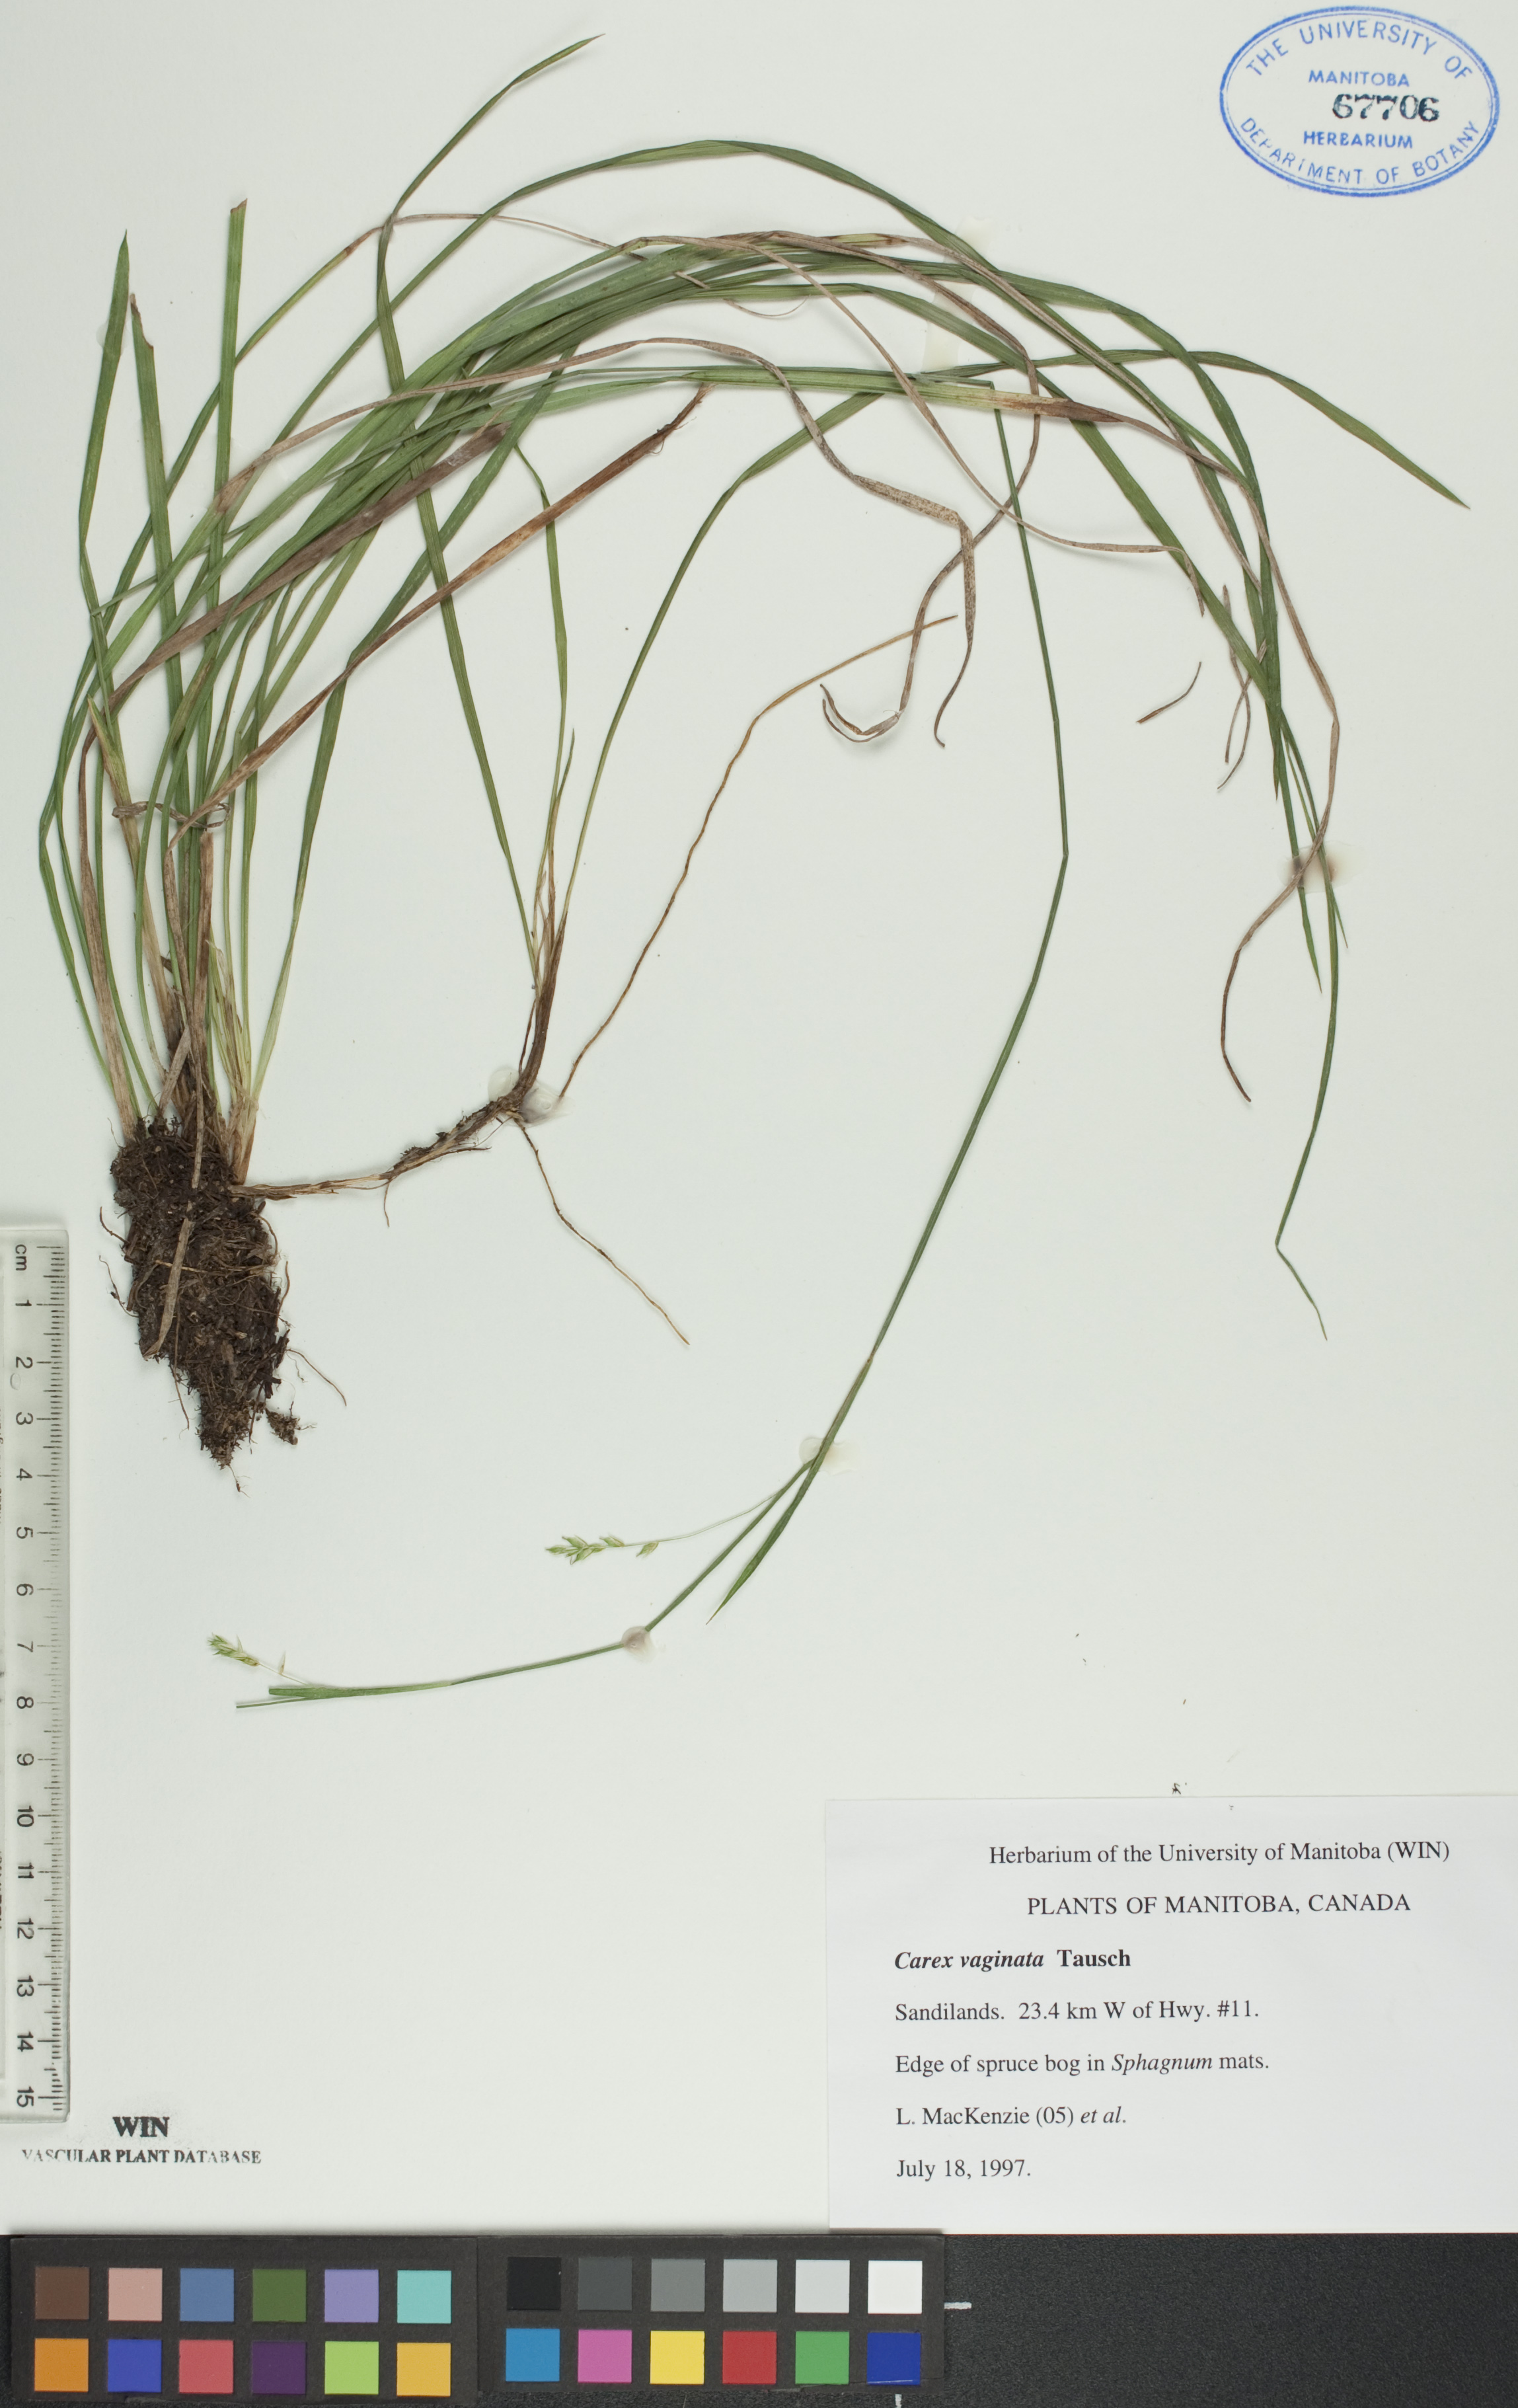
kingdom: Plantae
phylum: Tracheophyta
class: Liliopsida
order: Poales
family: Cyperaceae
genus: Carex
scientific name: Carex vaginata
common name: Sheathed sedge
